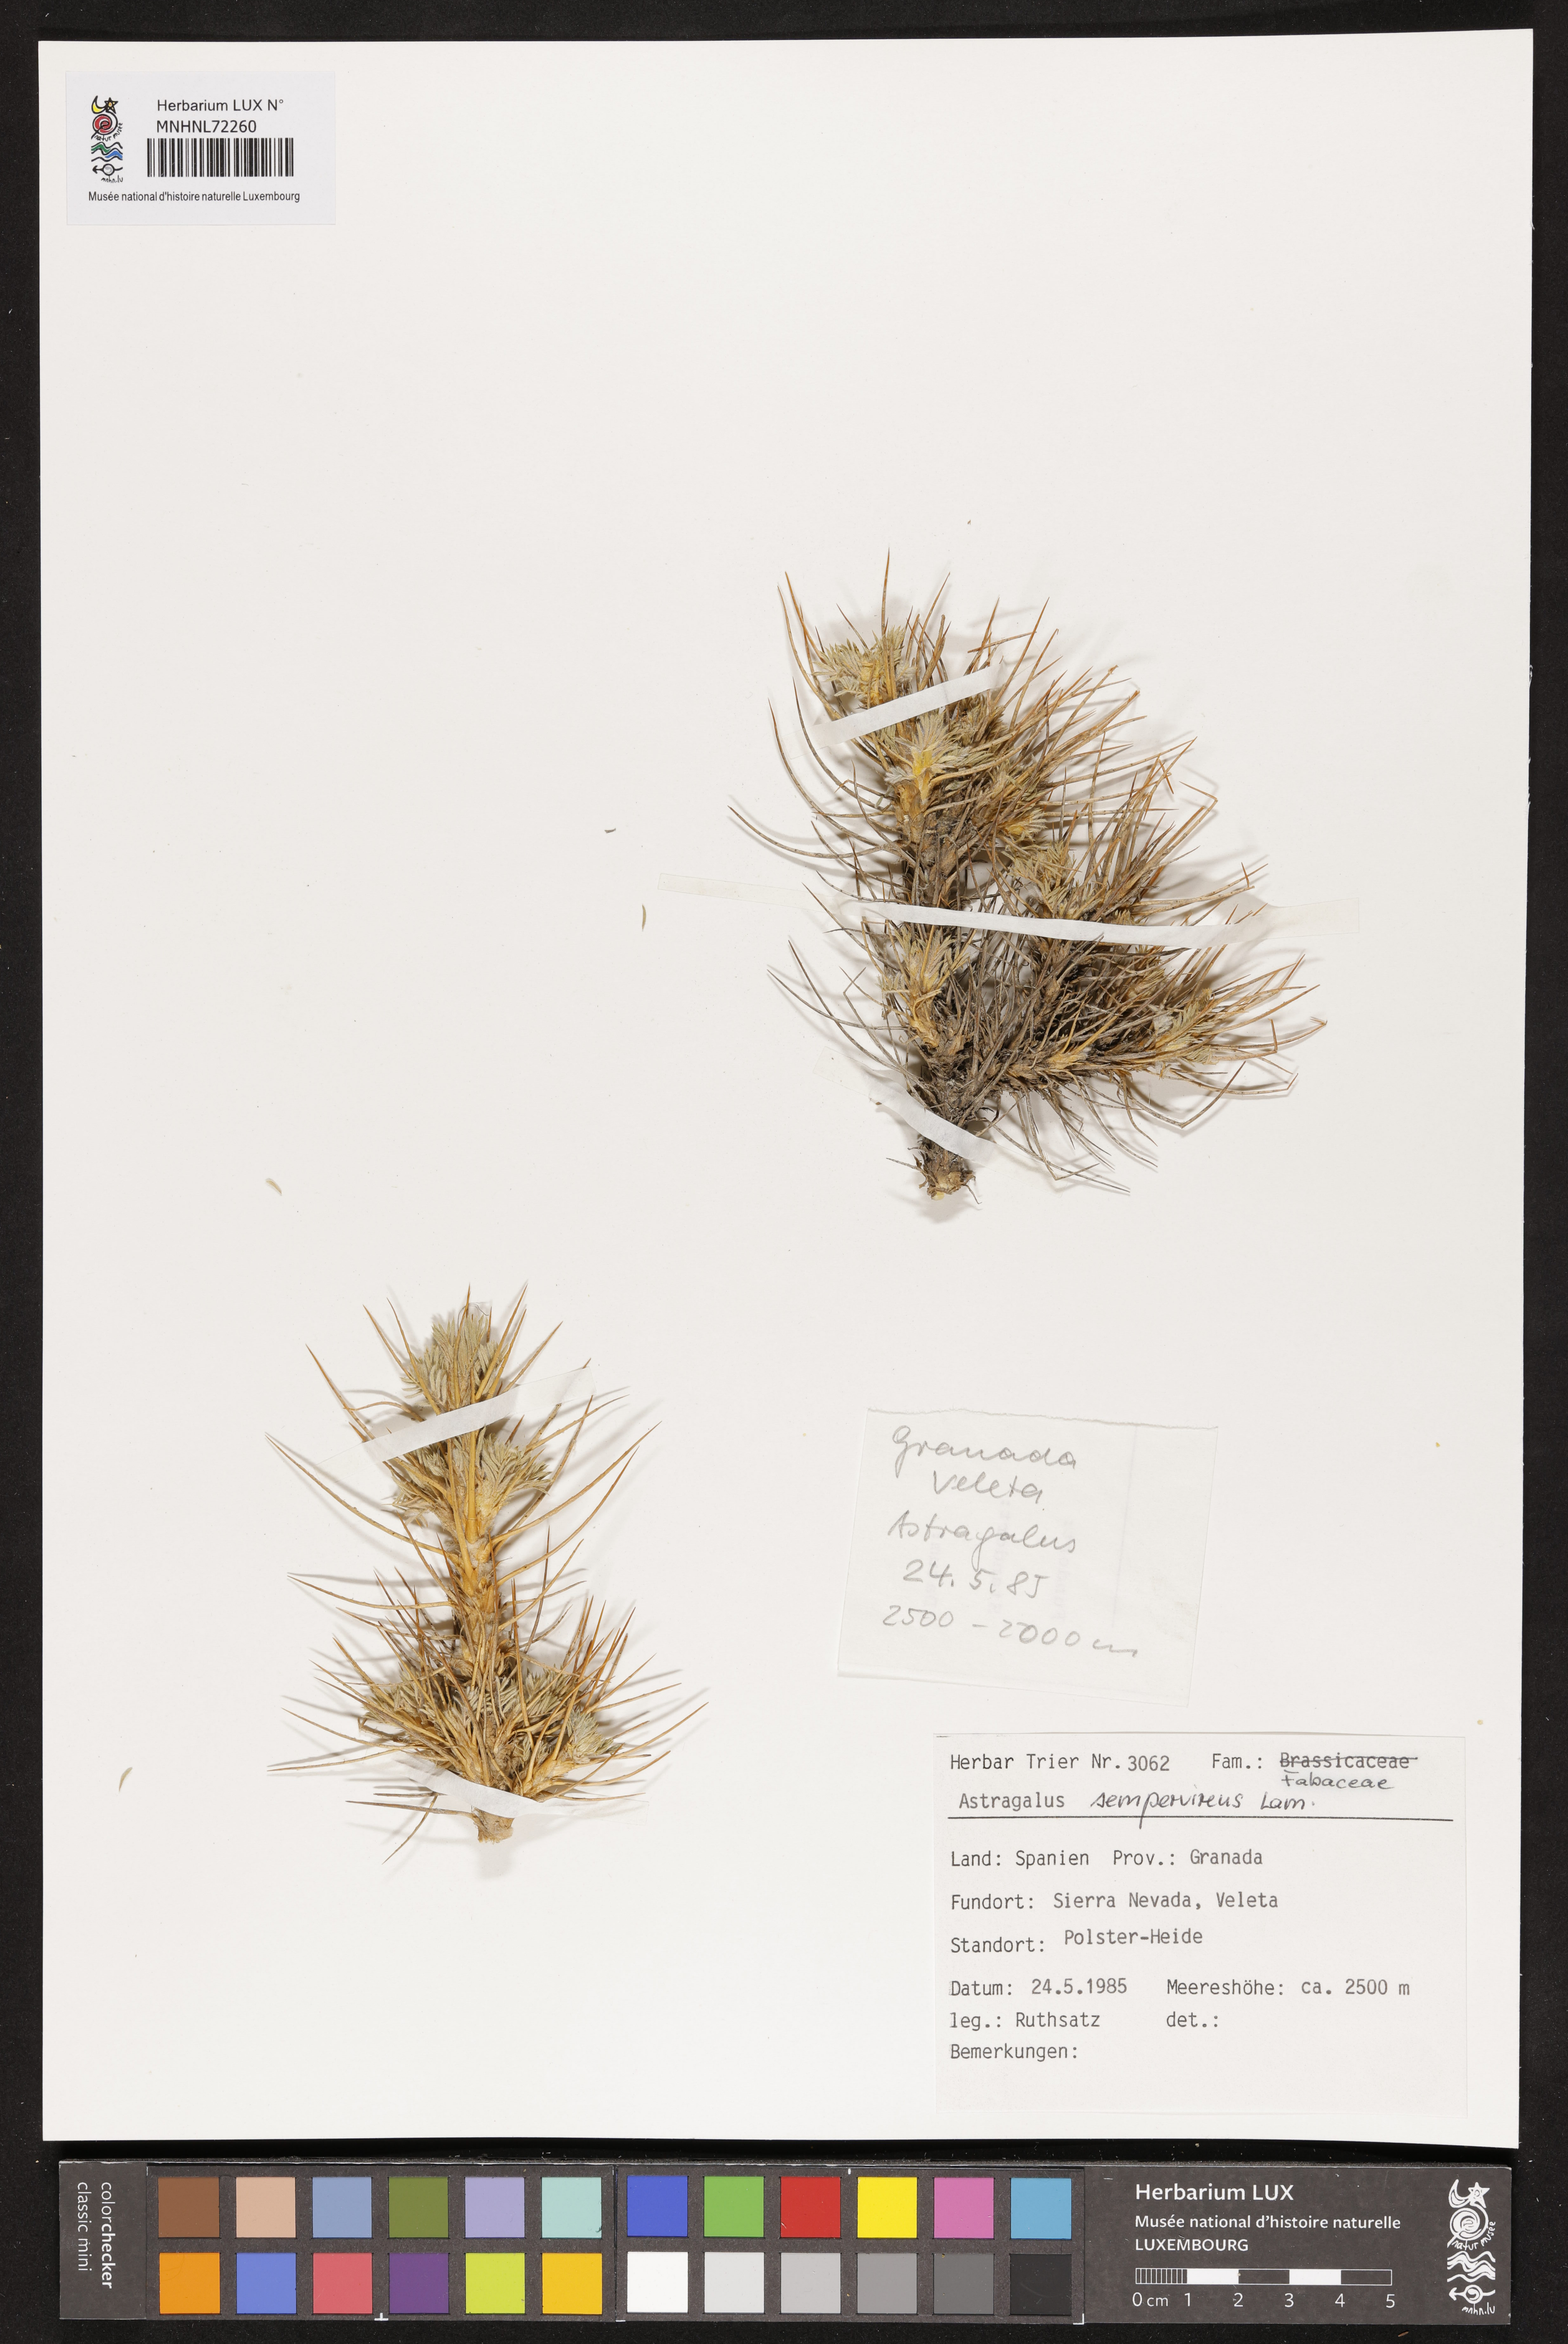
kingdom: Plantae
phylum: Tracheophyta
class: Magnoliopsida
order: Fabales
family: Fabaceae
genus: Astragalus
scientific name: Astragalus sempervirens
